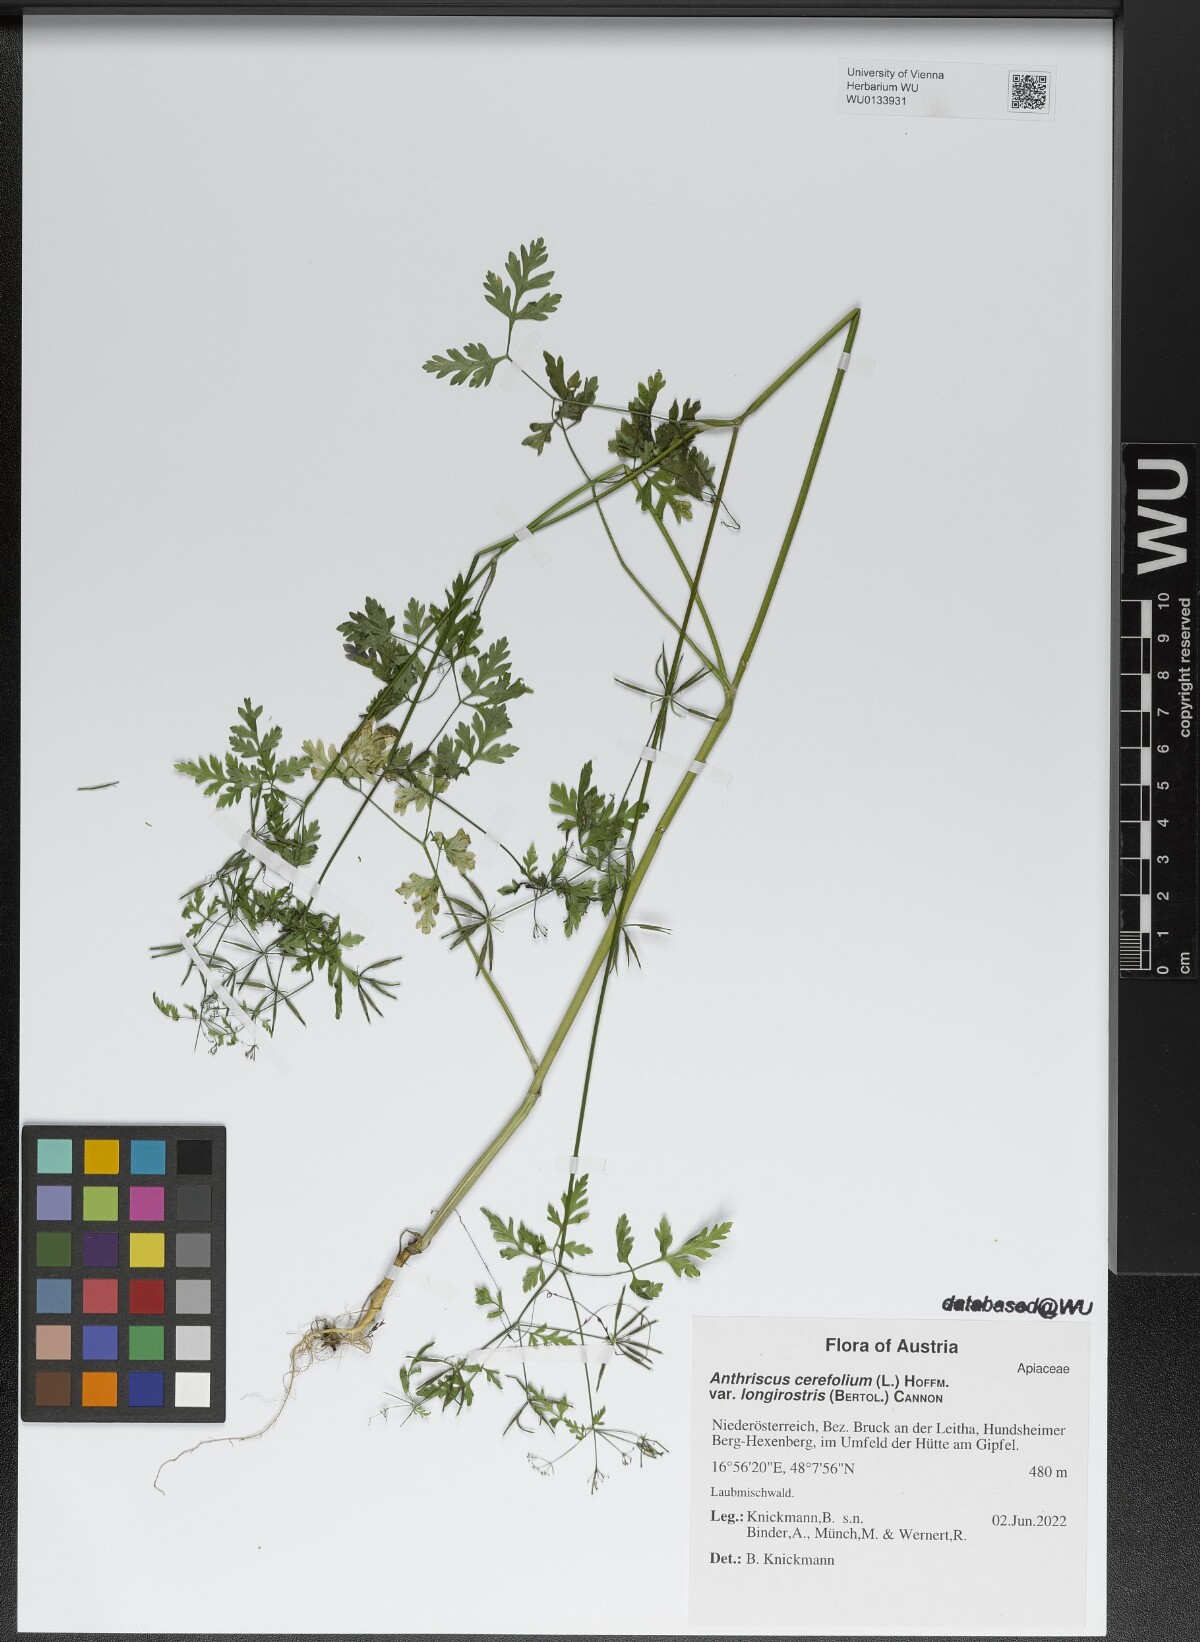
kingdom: Plantae
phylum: Tracheophyta
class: Magnoliopsida
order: Apiales
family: Apiaceae
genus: Anthriscus
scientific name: Anthriscus cerefolium
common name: Garden chervil
